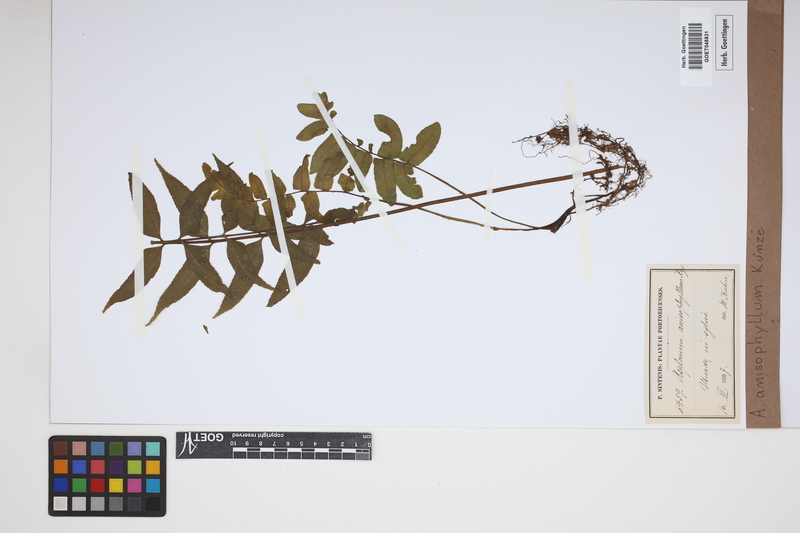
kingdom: Plantae
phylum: Tracheophyta
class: Polypodiopsida
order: Polypodiales
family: Aspleniaceae
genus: Asplenium
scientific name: Asplenium anisophyllum
